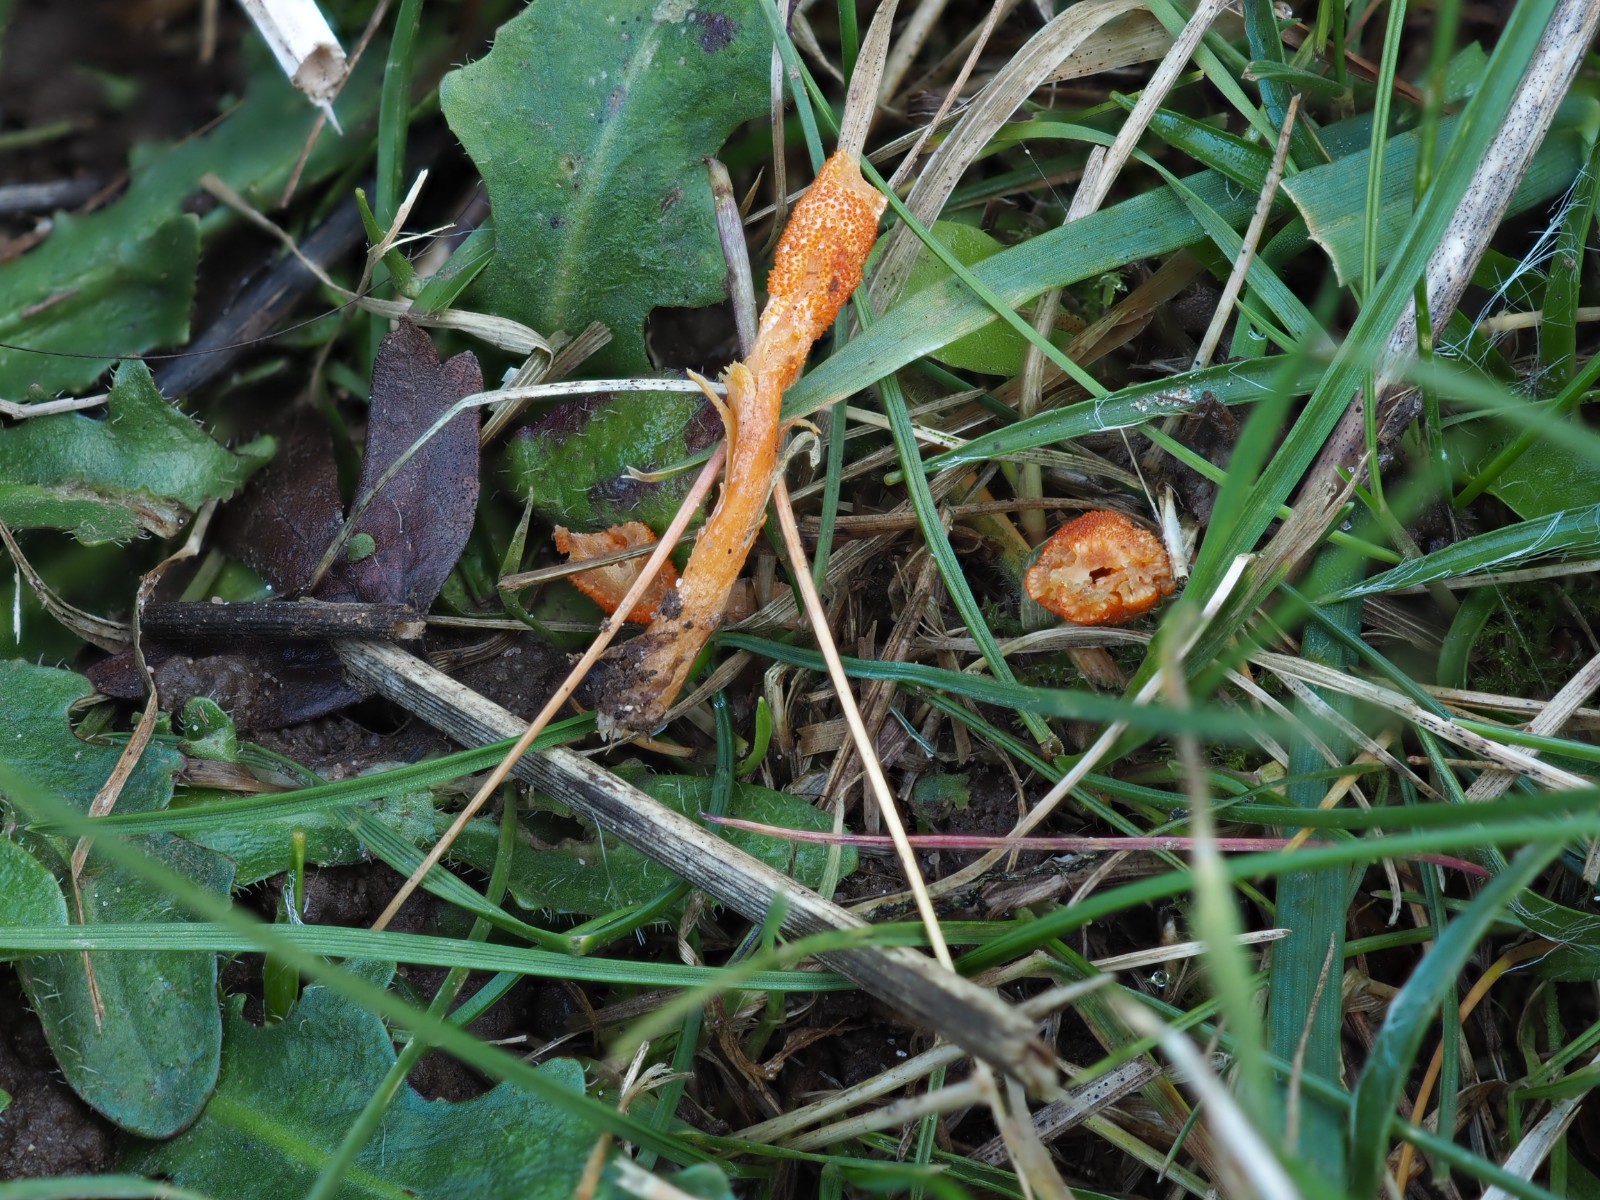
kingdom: Fungi
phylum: Ascomycota
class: Sordariomycetes
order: Hypocreales
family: Cordycipitaceae
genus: Cordyceps
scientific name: Cordyceps militaris
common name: puppe-snyltekølle
